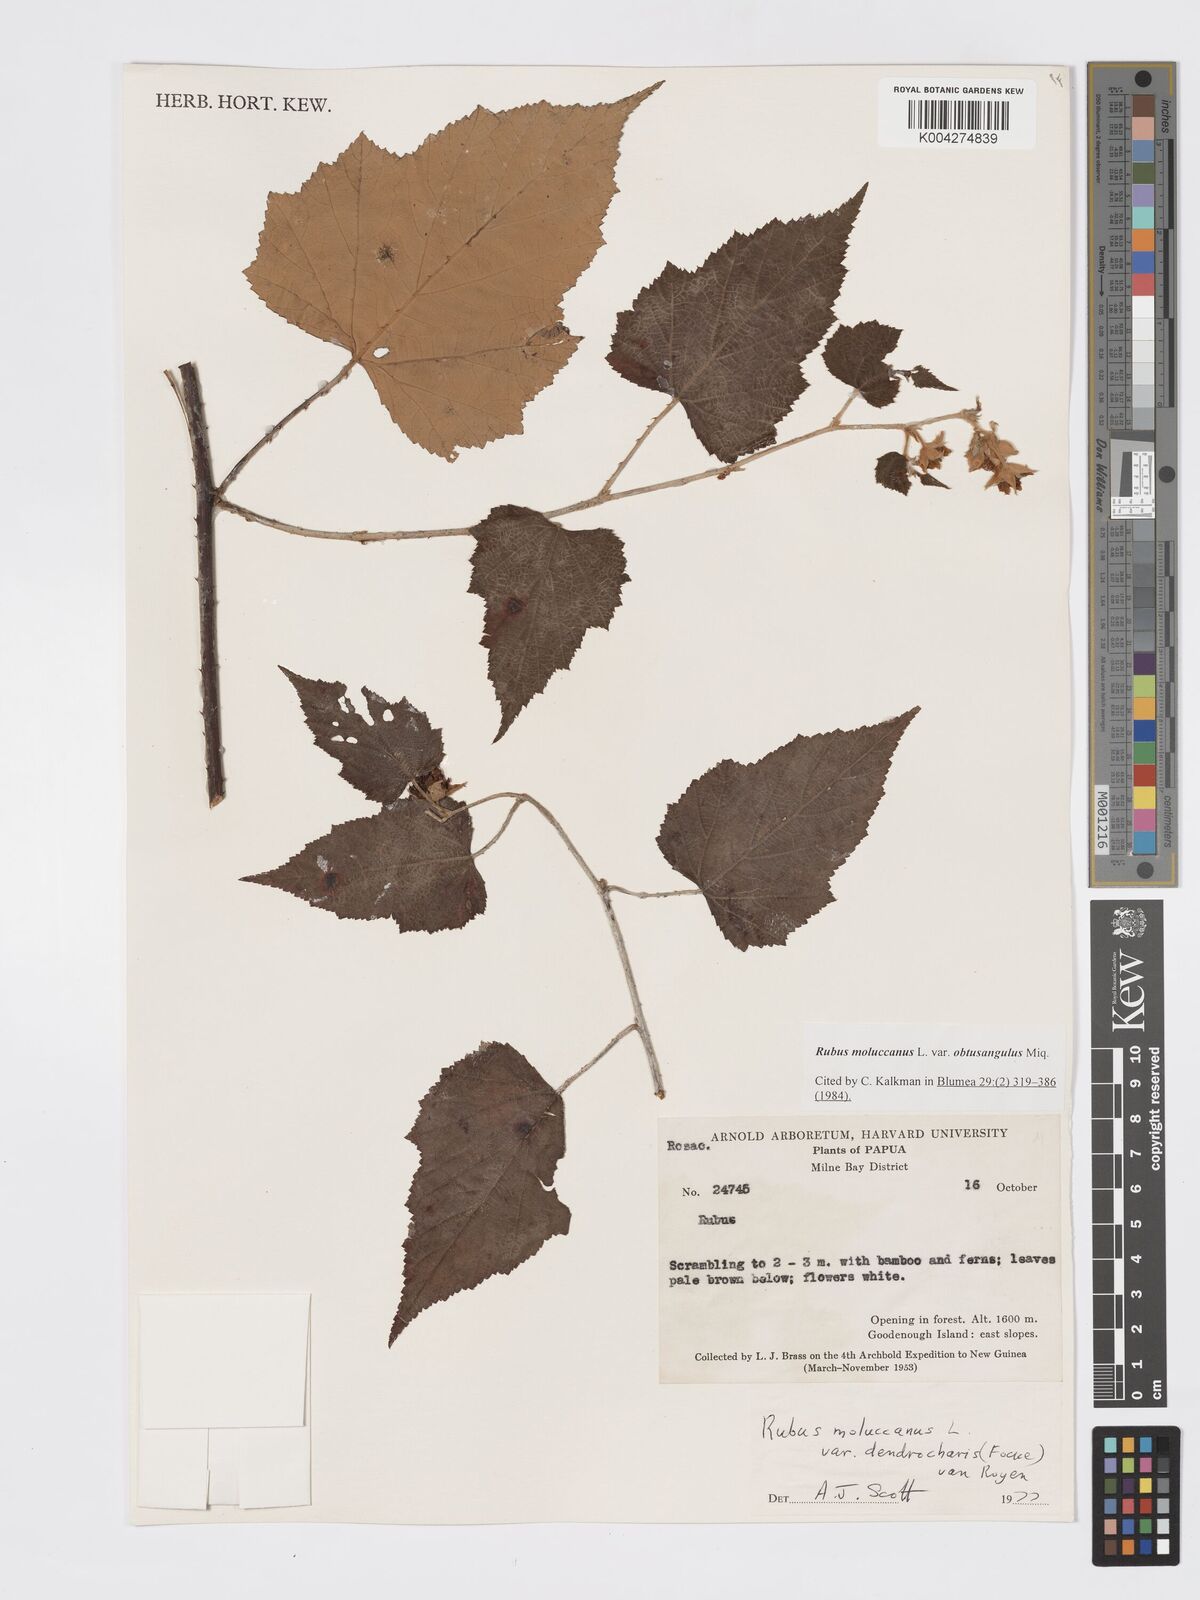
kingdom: Plantae
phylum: Tracheophyta
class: Magnoliopsida
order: Rosales
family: Rosaceae
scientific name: Rosaceae
